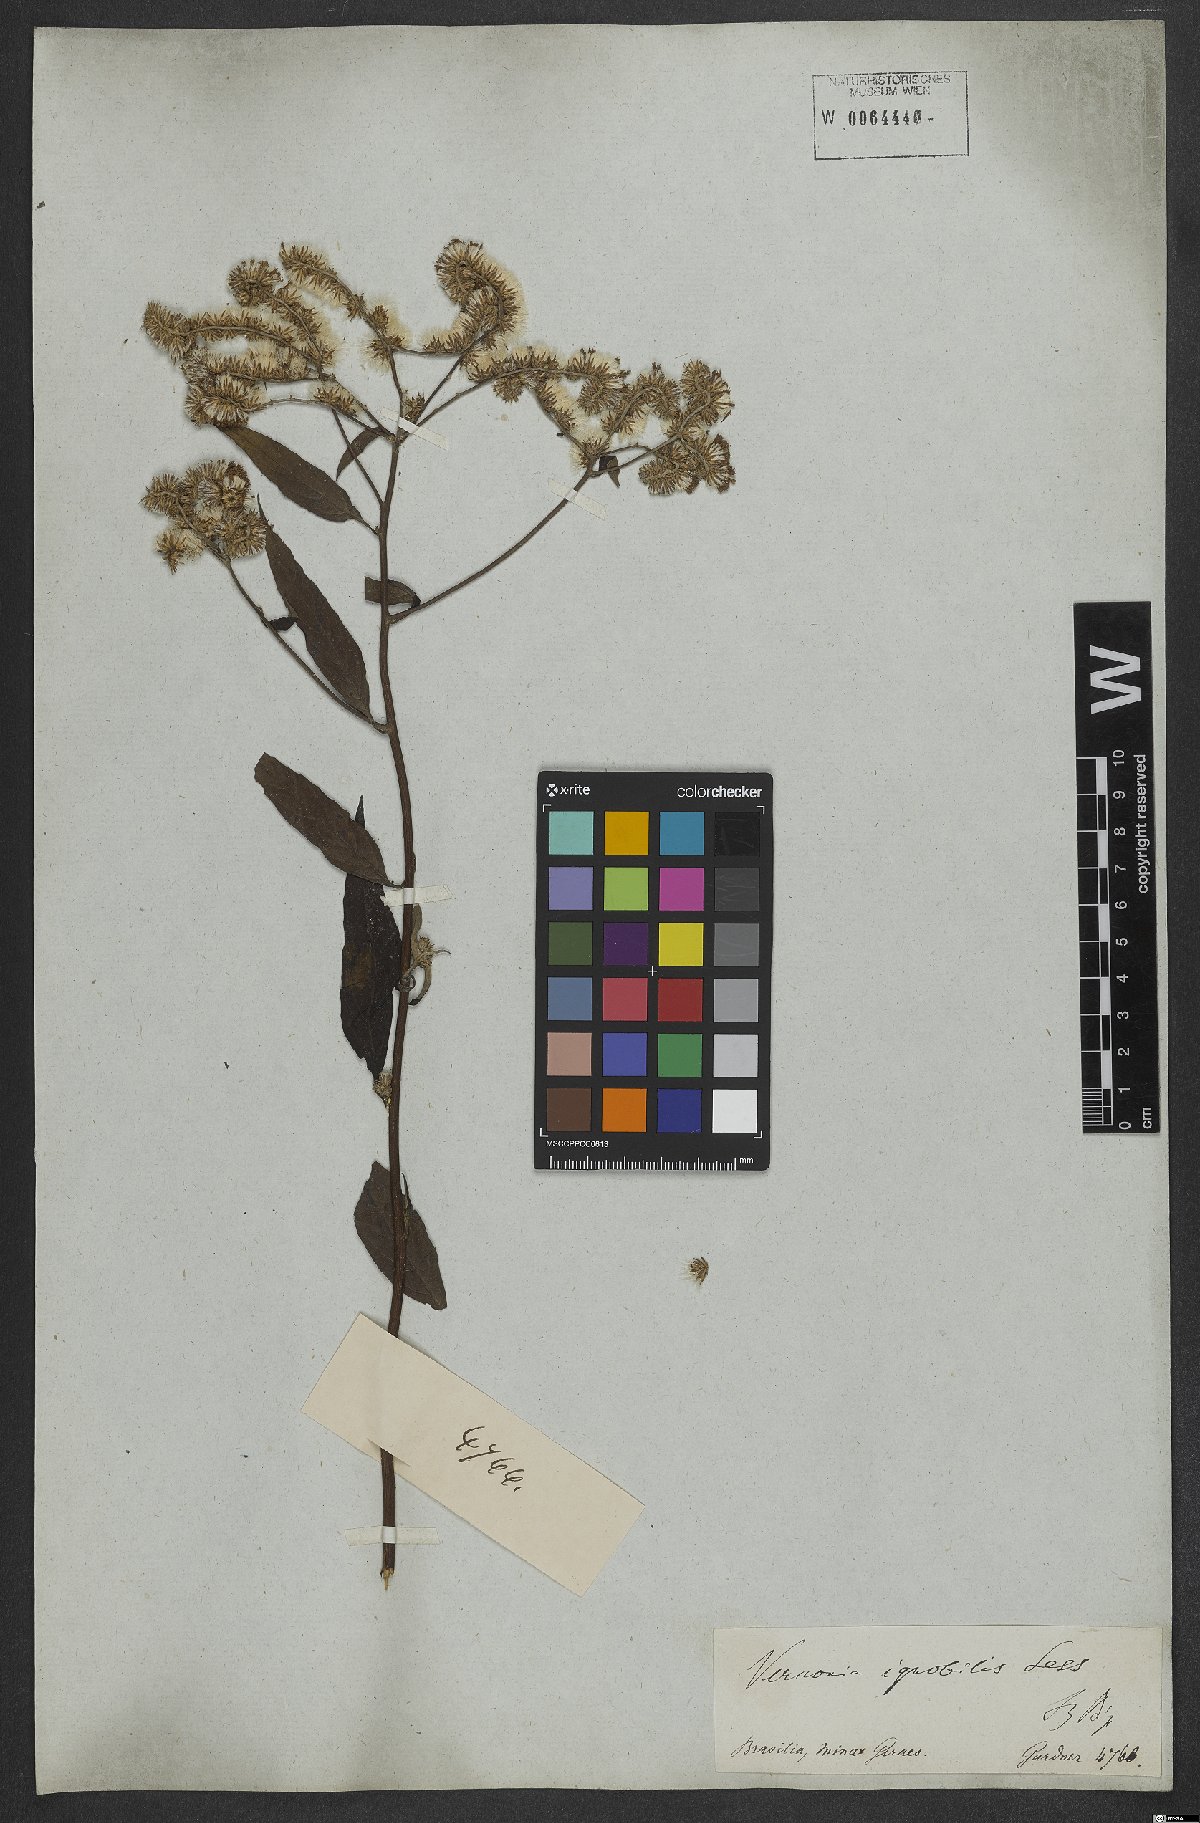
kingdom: Plantae
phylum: Tracheophyta
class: Magnoliopsida
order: Asterales
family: Asteraceae
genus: Vernonanthura
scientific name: Vernonanthura ignobilis
